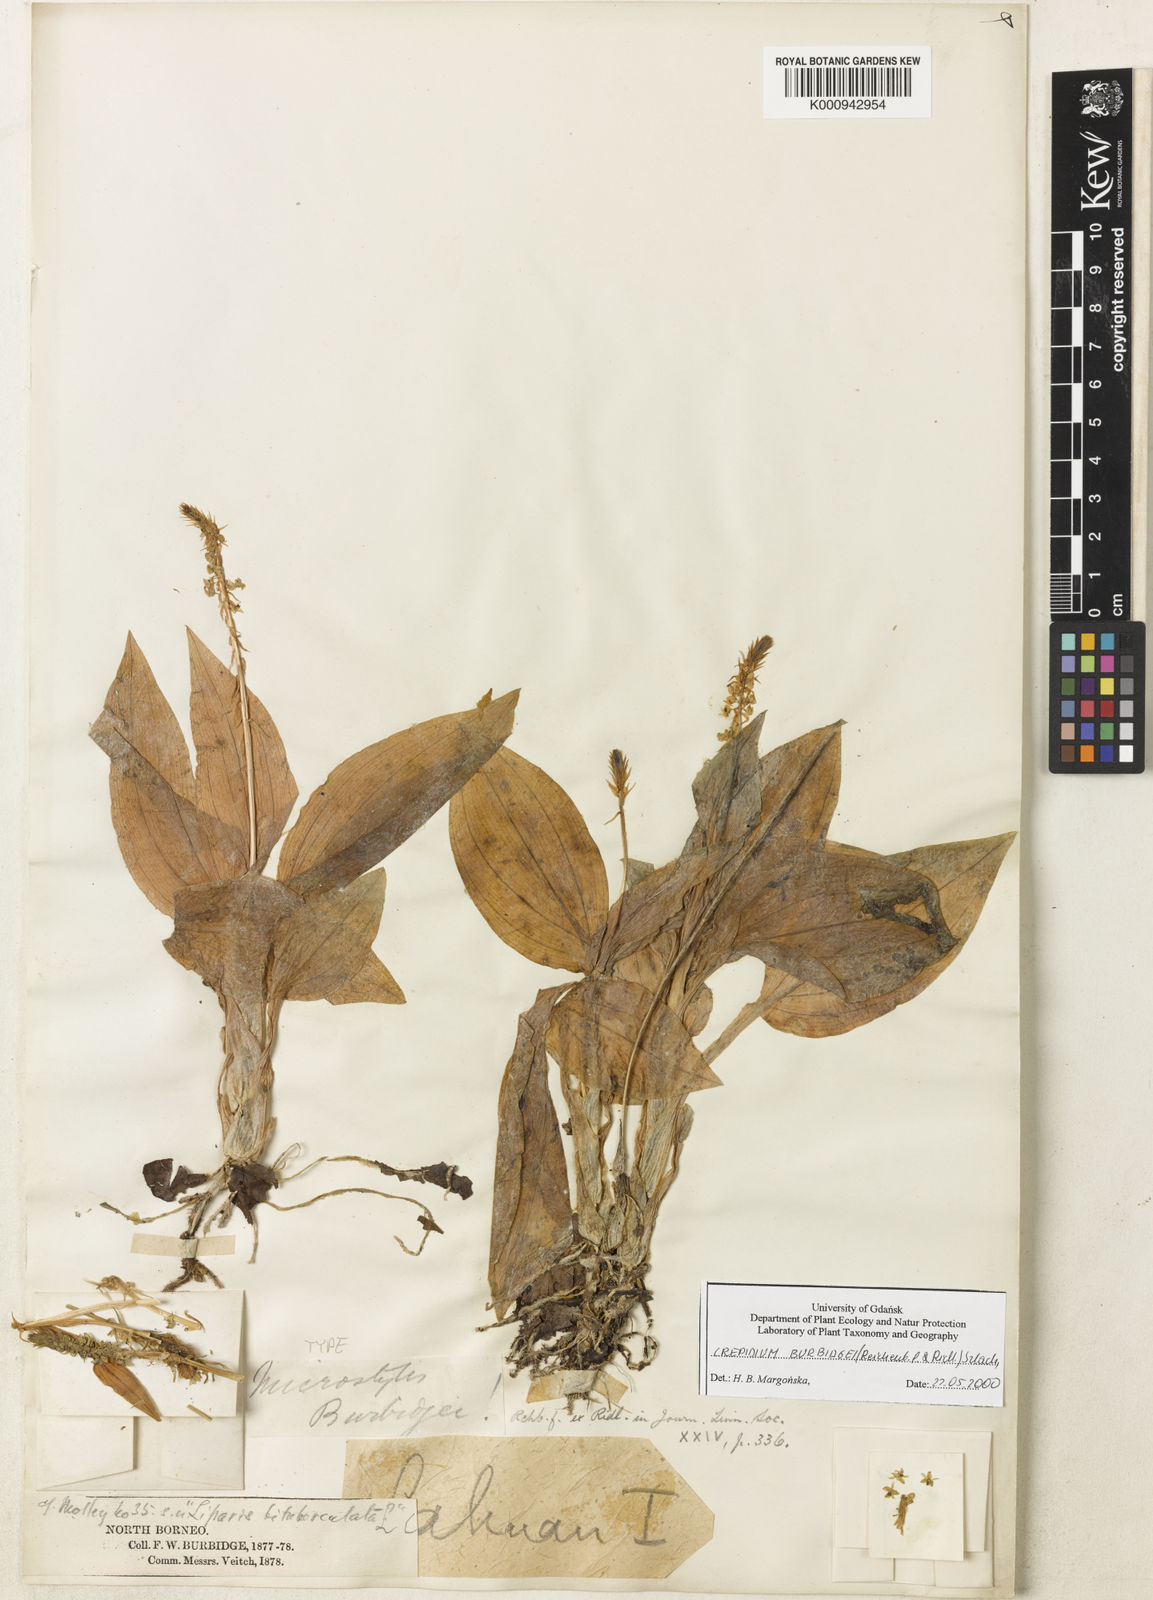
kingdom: Plantae
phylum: Tracheophyta
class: Liliopsida
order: Asparagales
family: Orchidaceae
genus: Crepidium
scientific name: Crepidium bidentiferum
